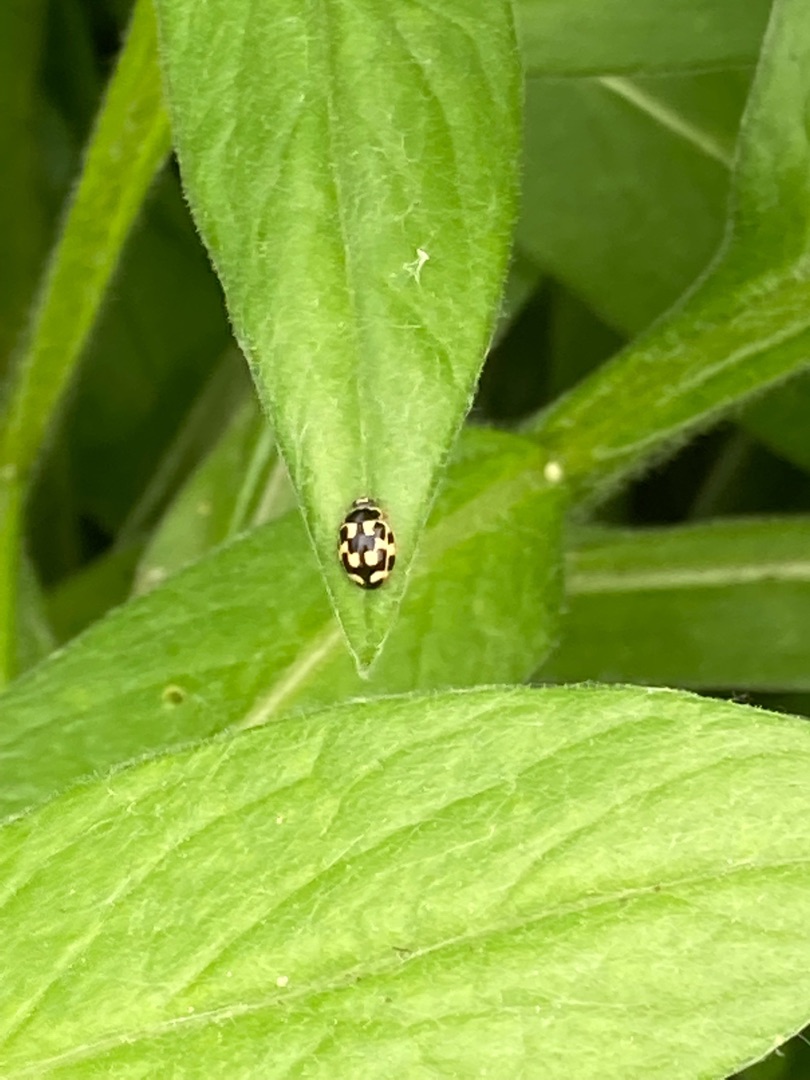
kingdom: Animalia
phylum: Arthropoda
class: Insecta
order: Coleoptera
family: Coccinellidae
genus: Propylaea
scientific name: Propylaea quatuordecimpunctata
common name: Skakbræt
